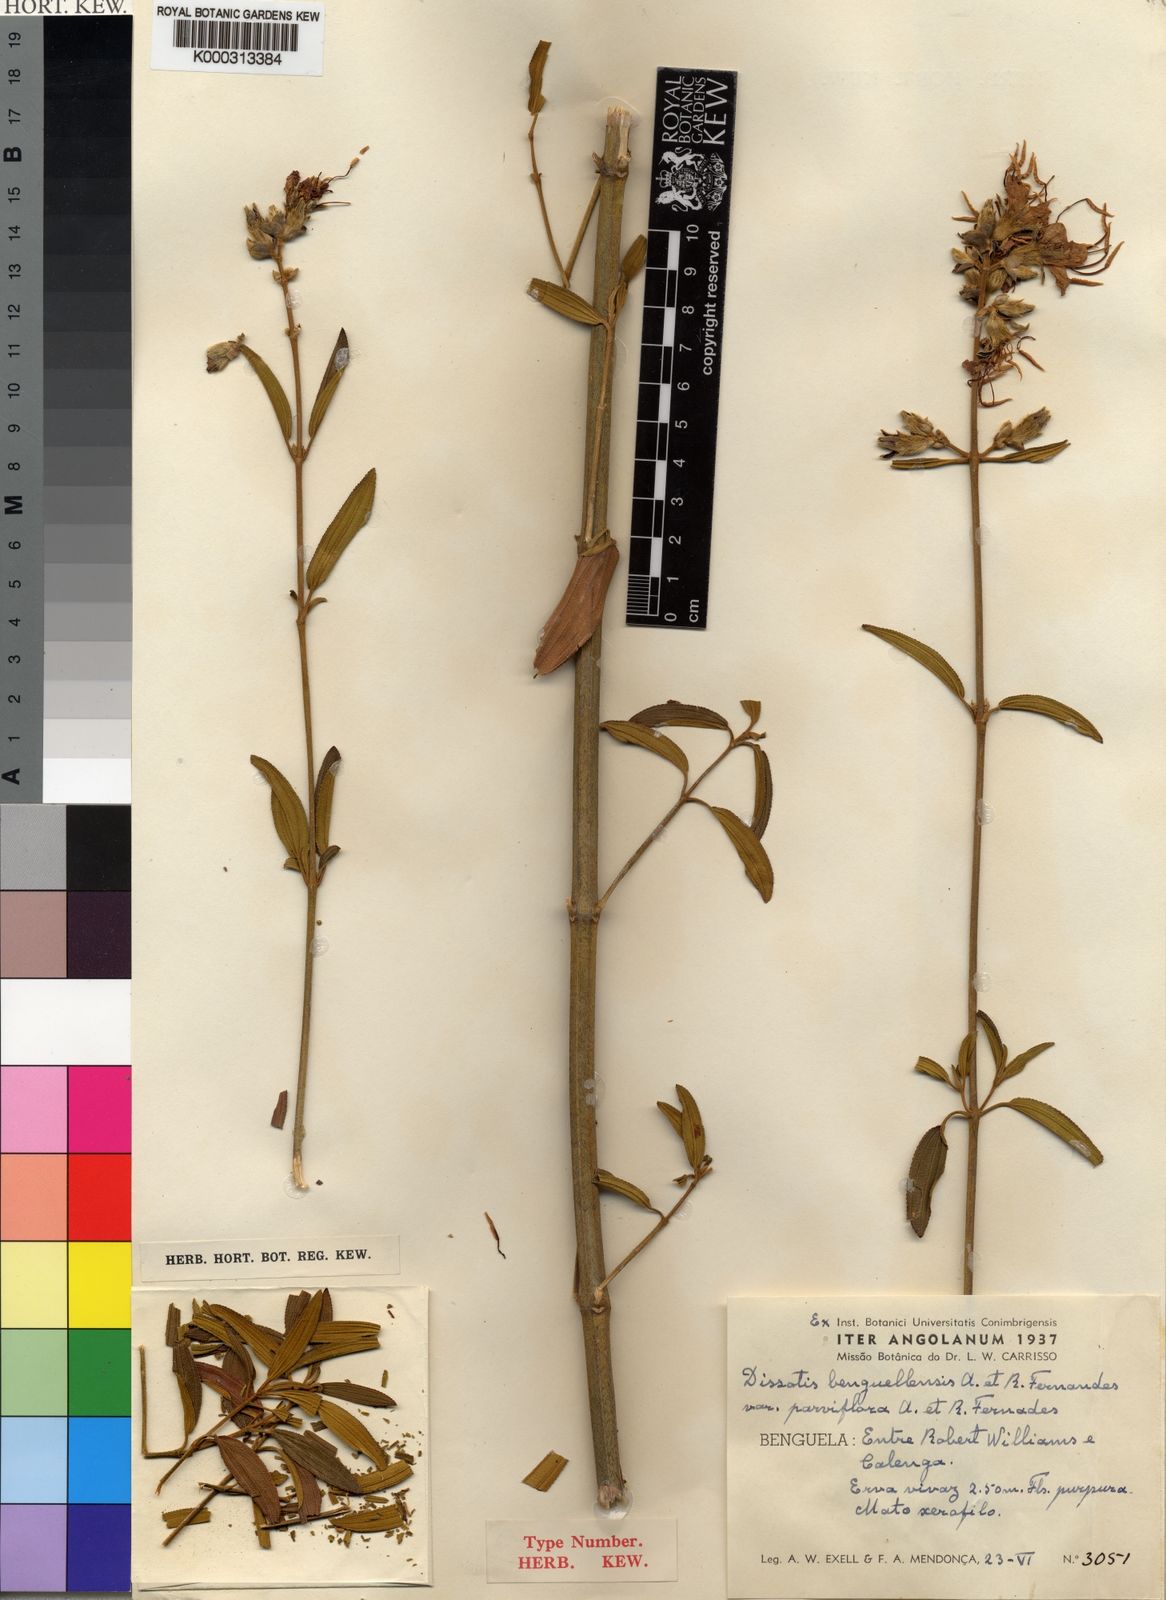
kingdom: Plantae
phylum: Tracheophyta
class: Magnoliopsida
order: Myrtales
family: Melastomataceae
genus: Rosettea
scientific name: Rosettea benguellensis
